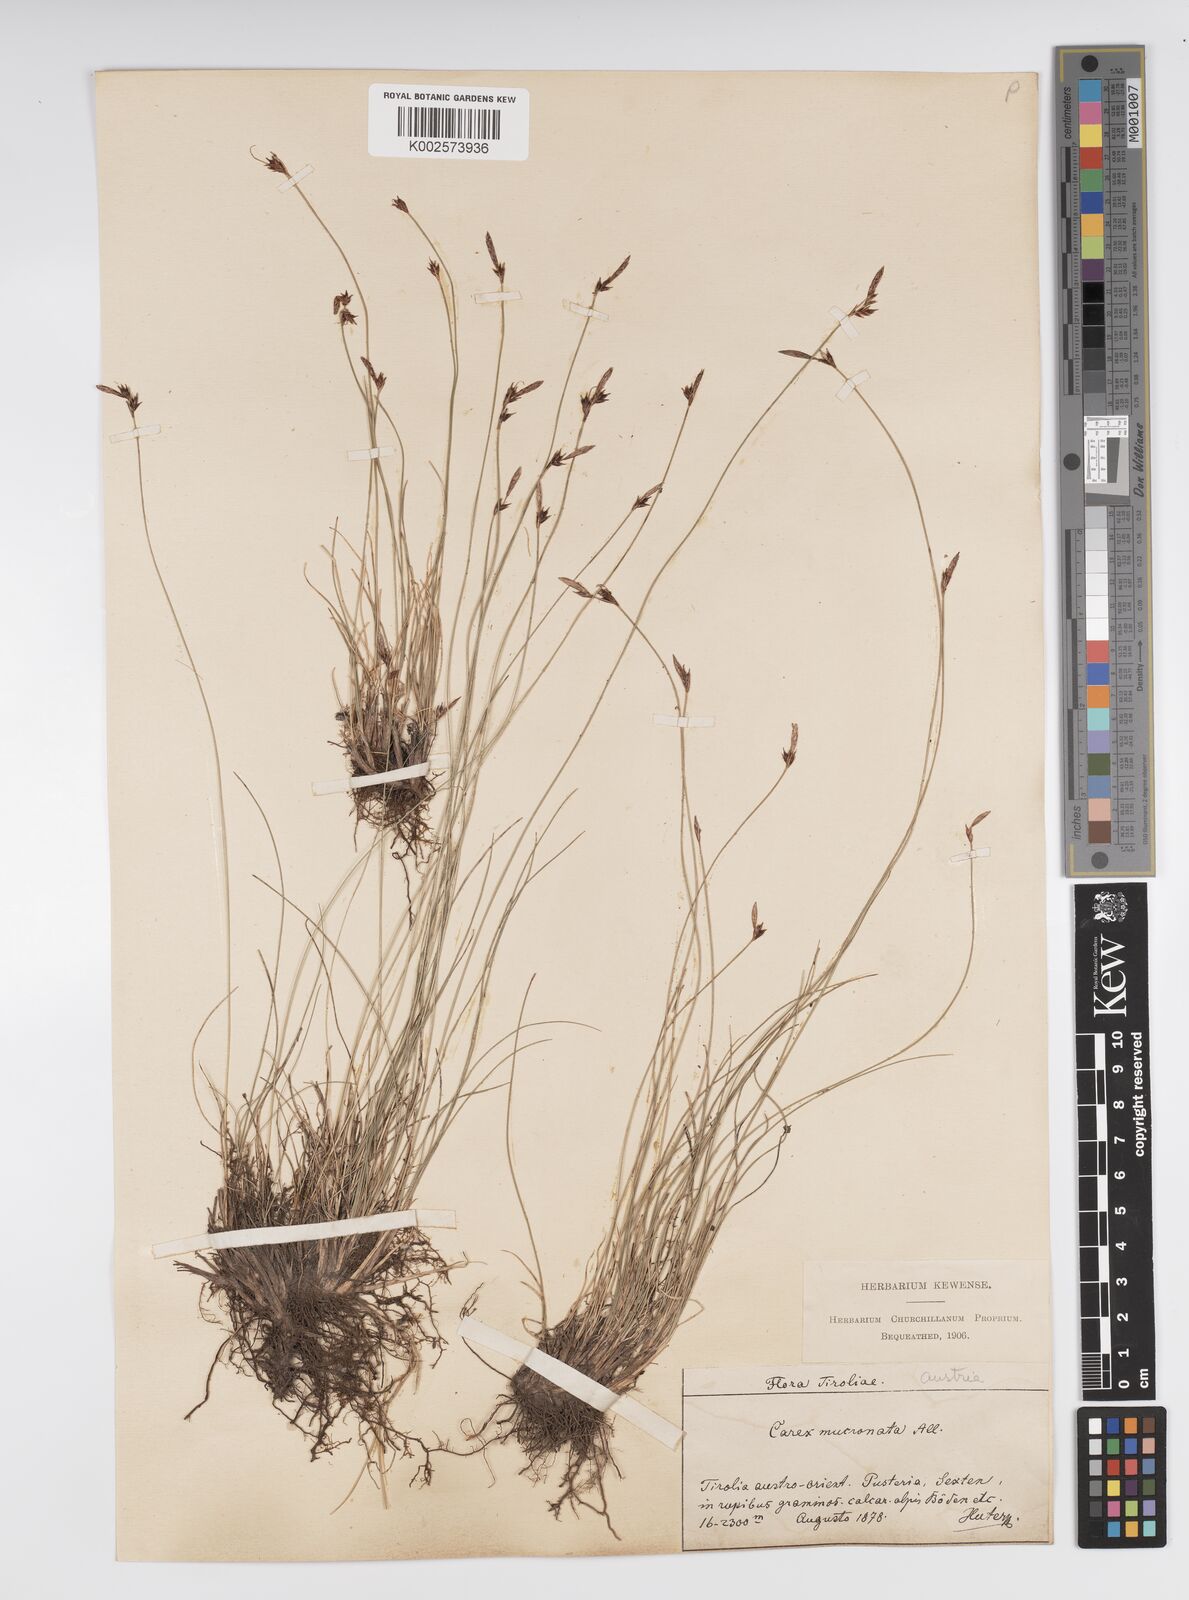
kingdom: Plantae
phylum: Tracheophyta
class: Liliopsida
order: Poales
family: Cyperaceae
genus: Carex
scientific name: Carex mucronata
